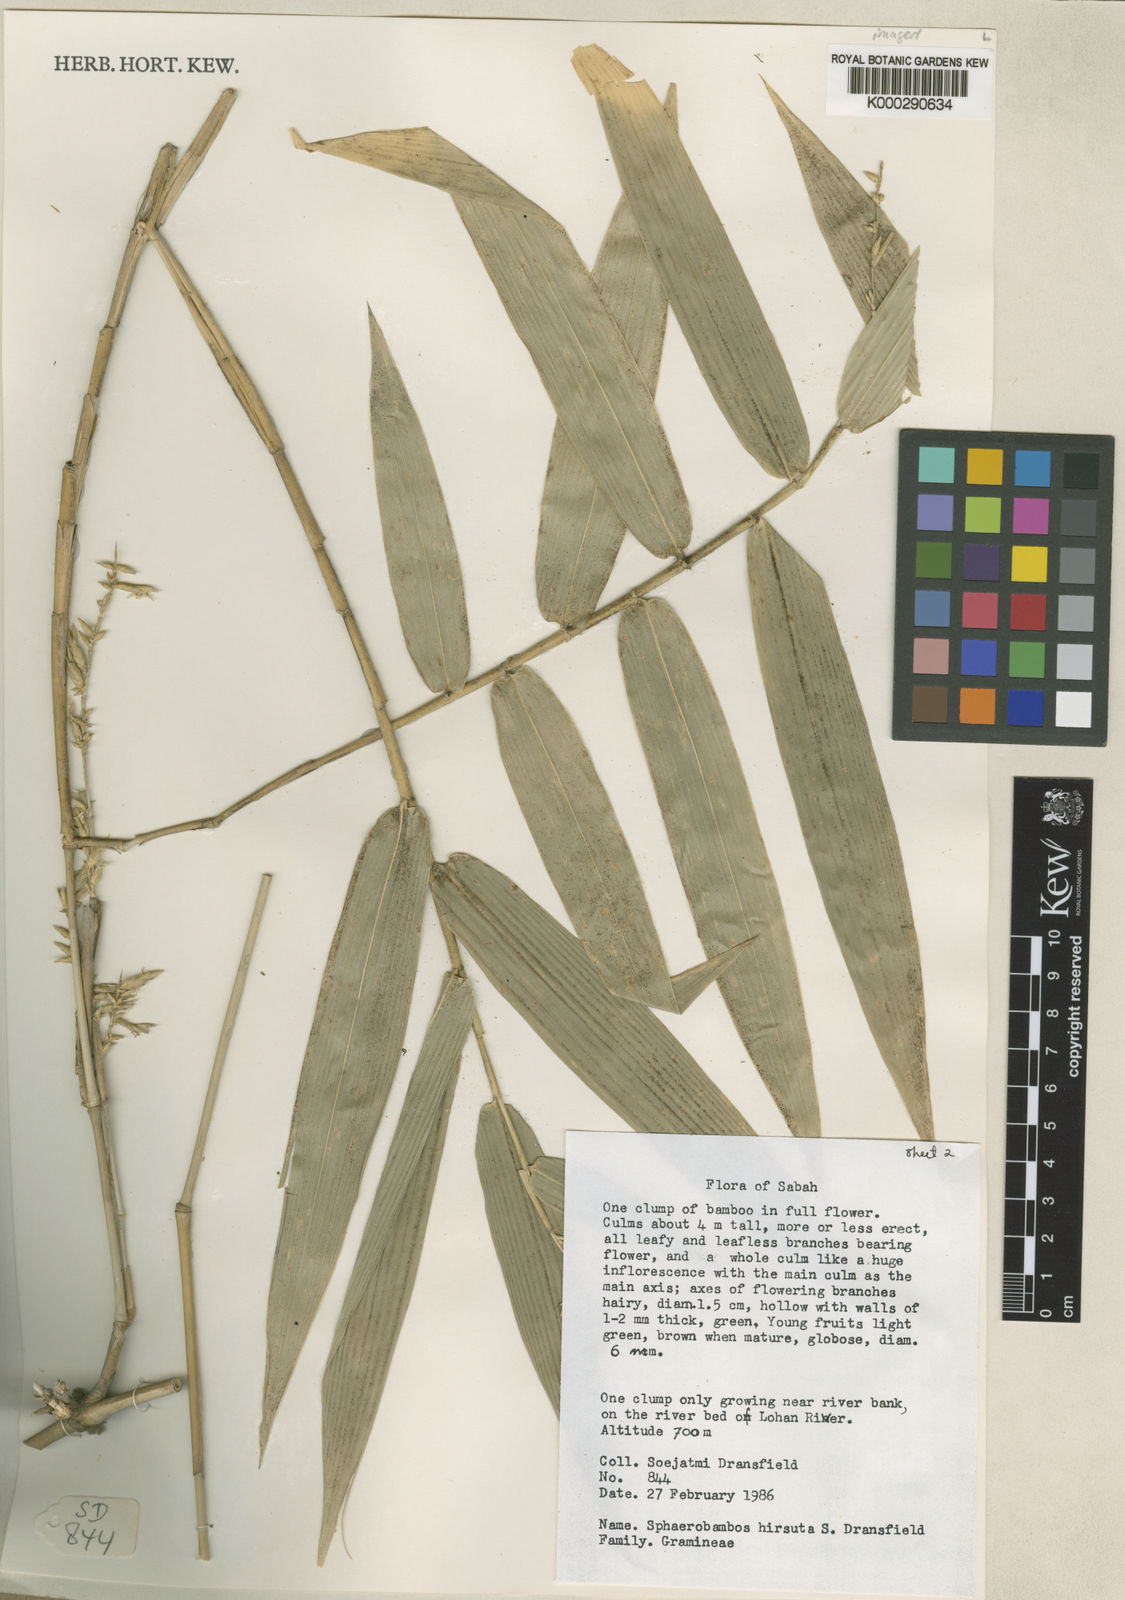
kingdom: Plantae
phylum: Tracheophyta
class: Liliopsida
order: Poales
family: Poaceae
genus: Sphaerobambos
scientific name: Sphaerobambos hirsuta
